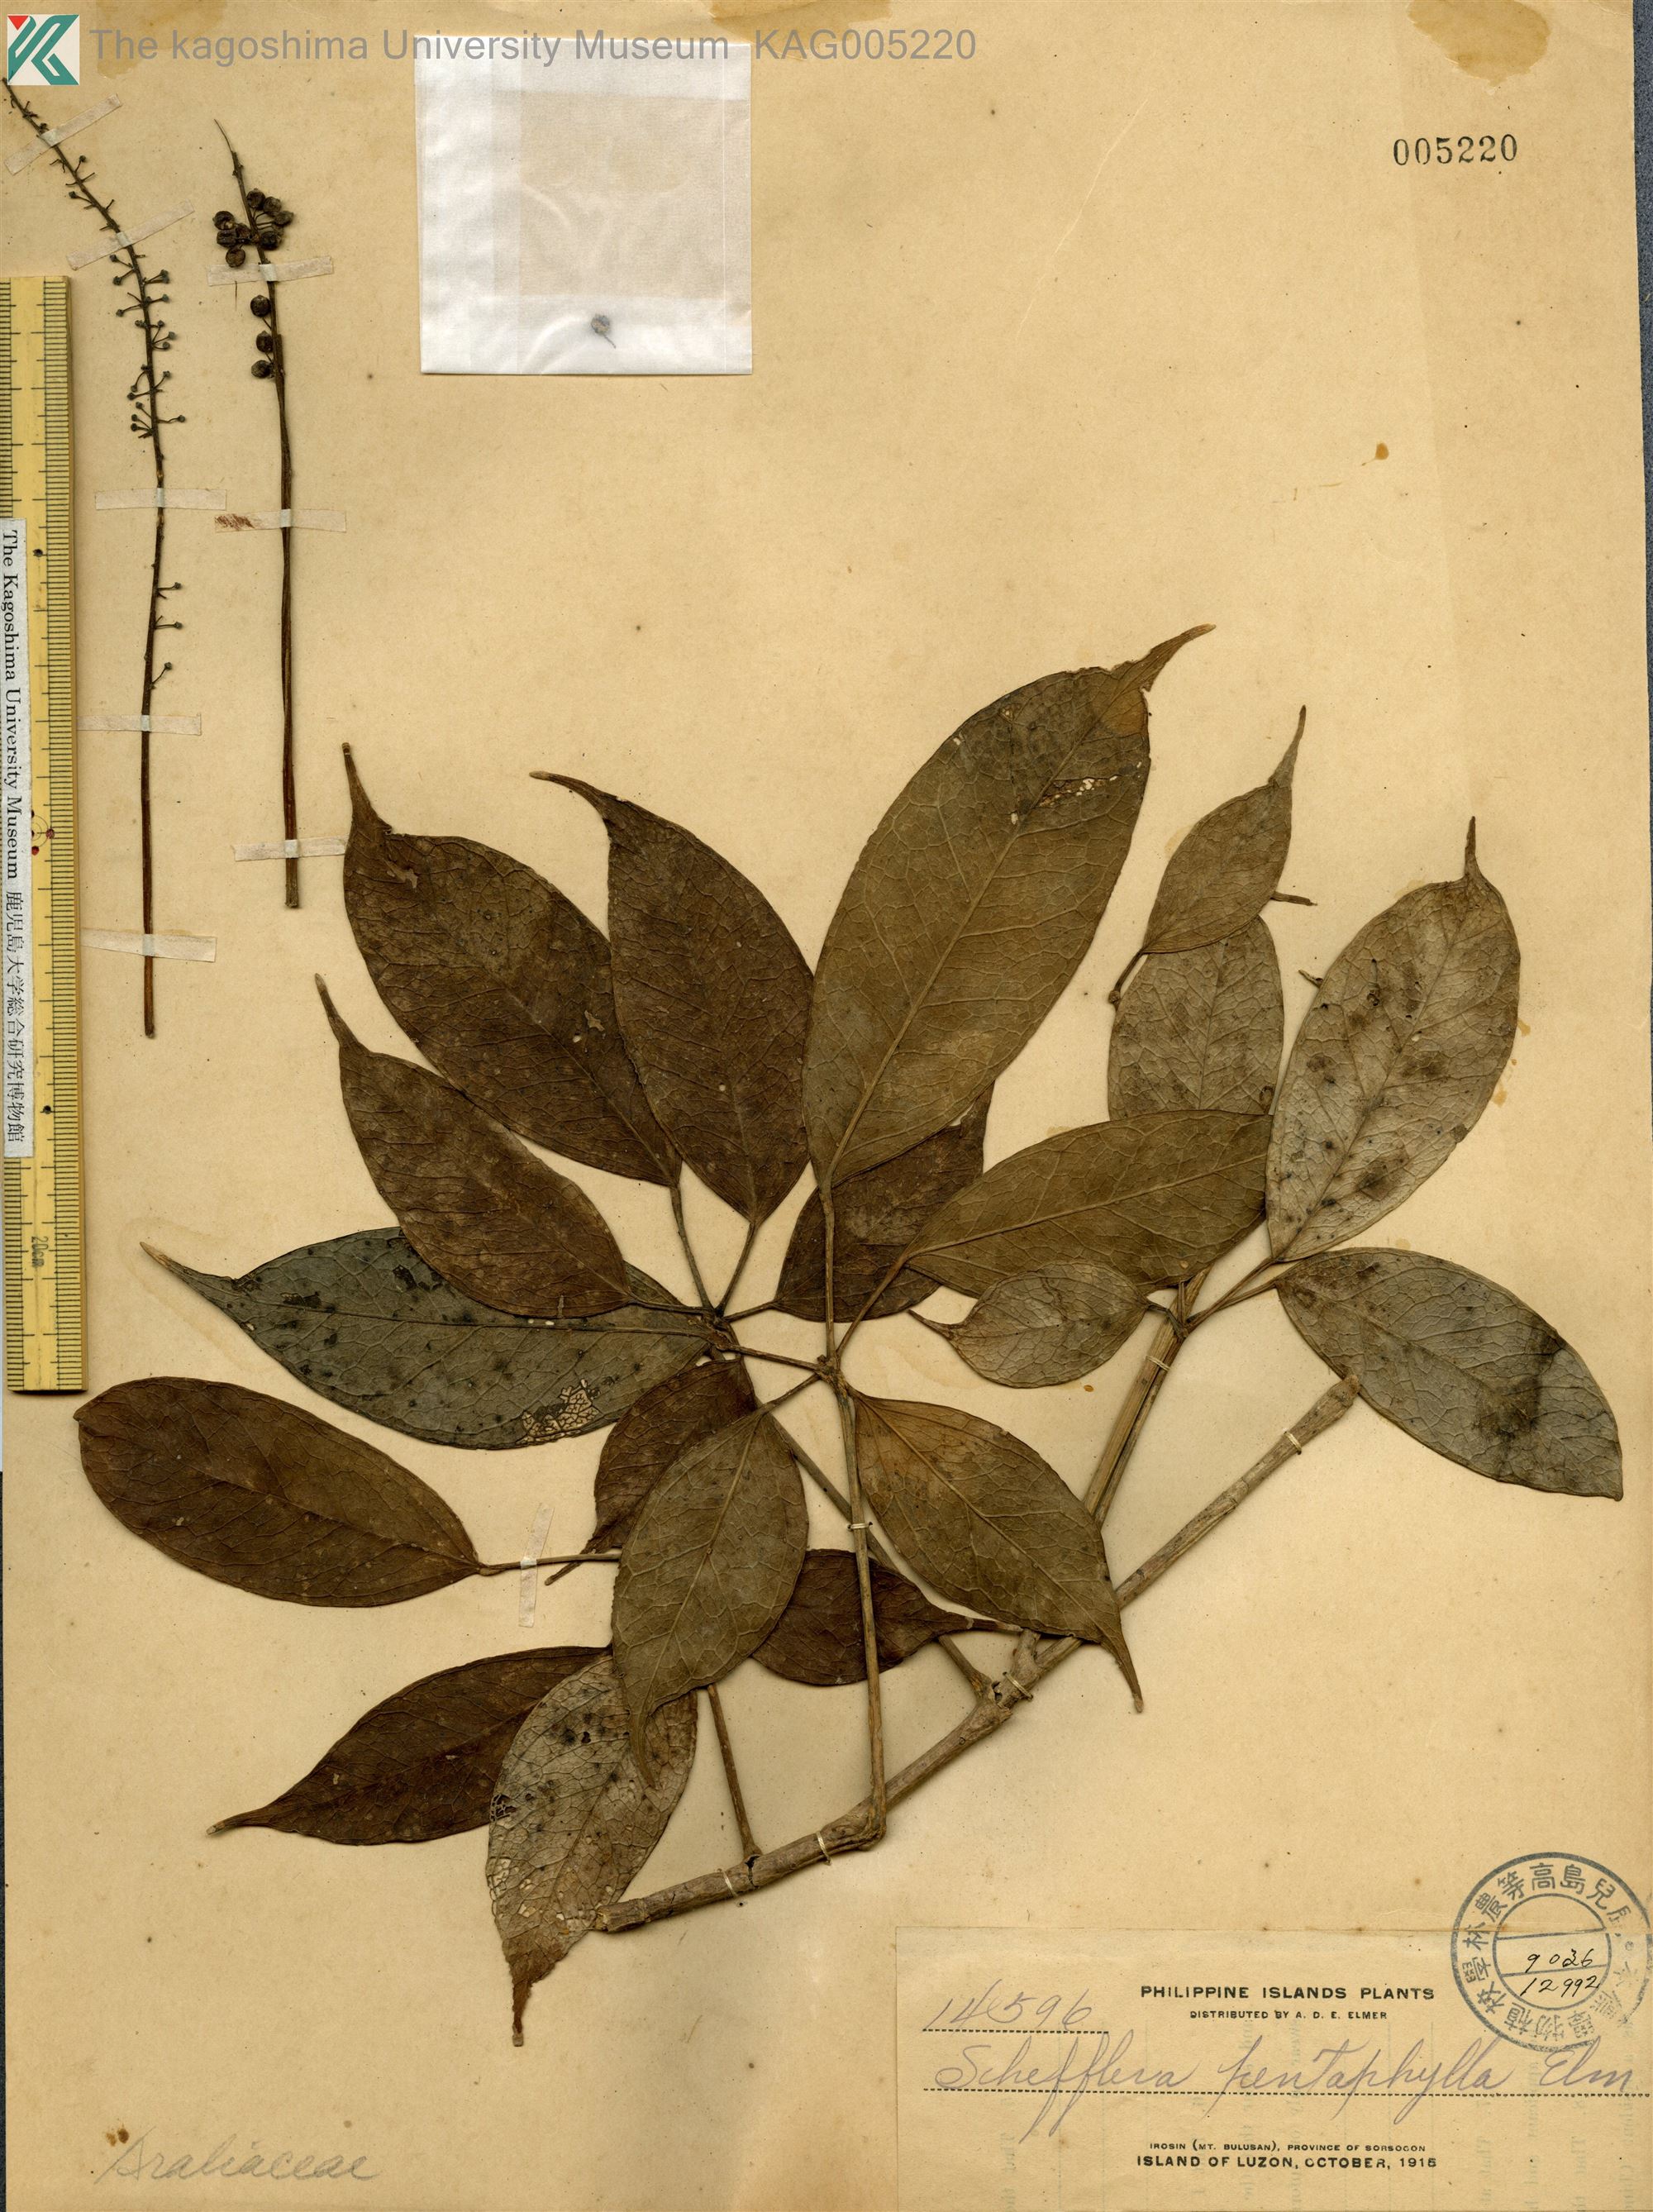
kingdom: Plantae
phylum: Tracheophyta
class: Magnoliopsida
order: Apiales
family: Araliaceae
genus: Heptapleurum
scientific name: Heptapleurum caudatum
